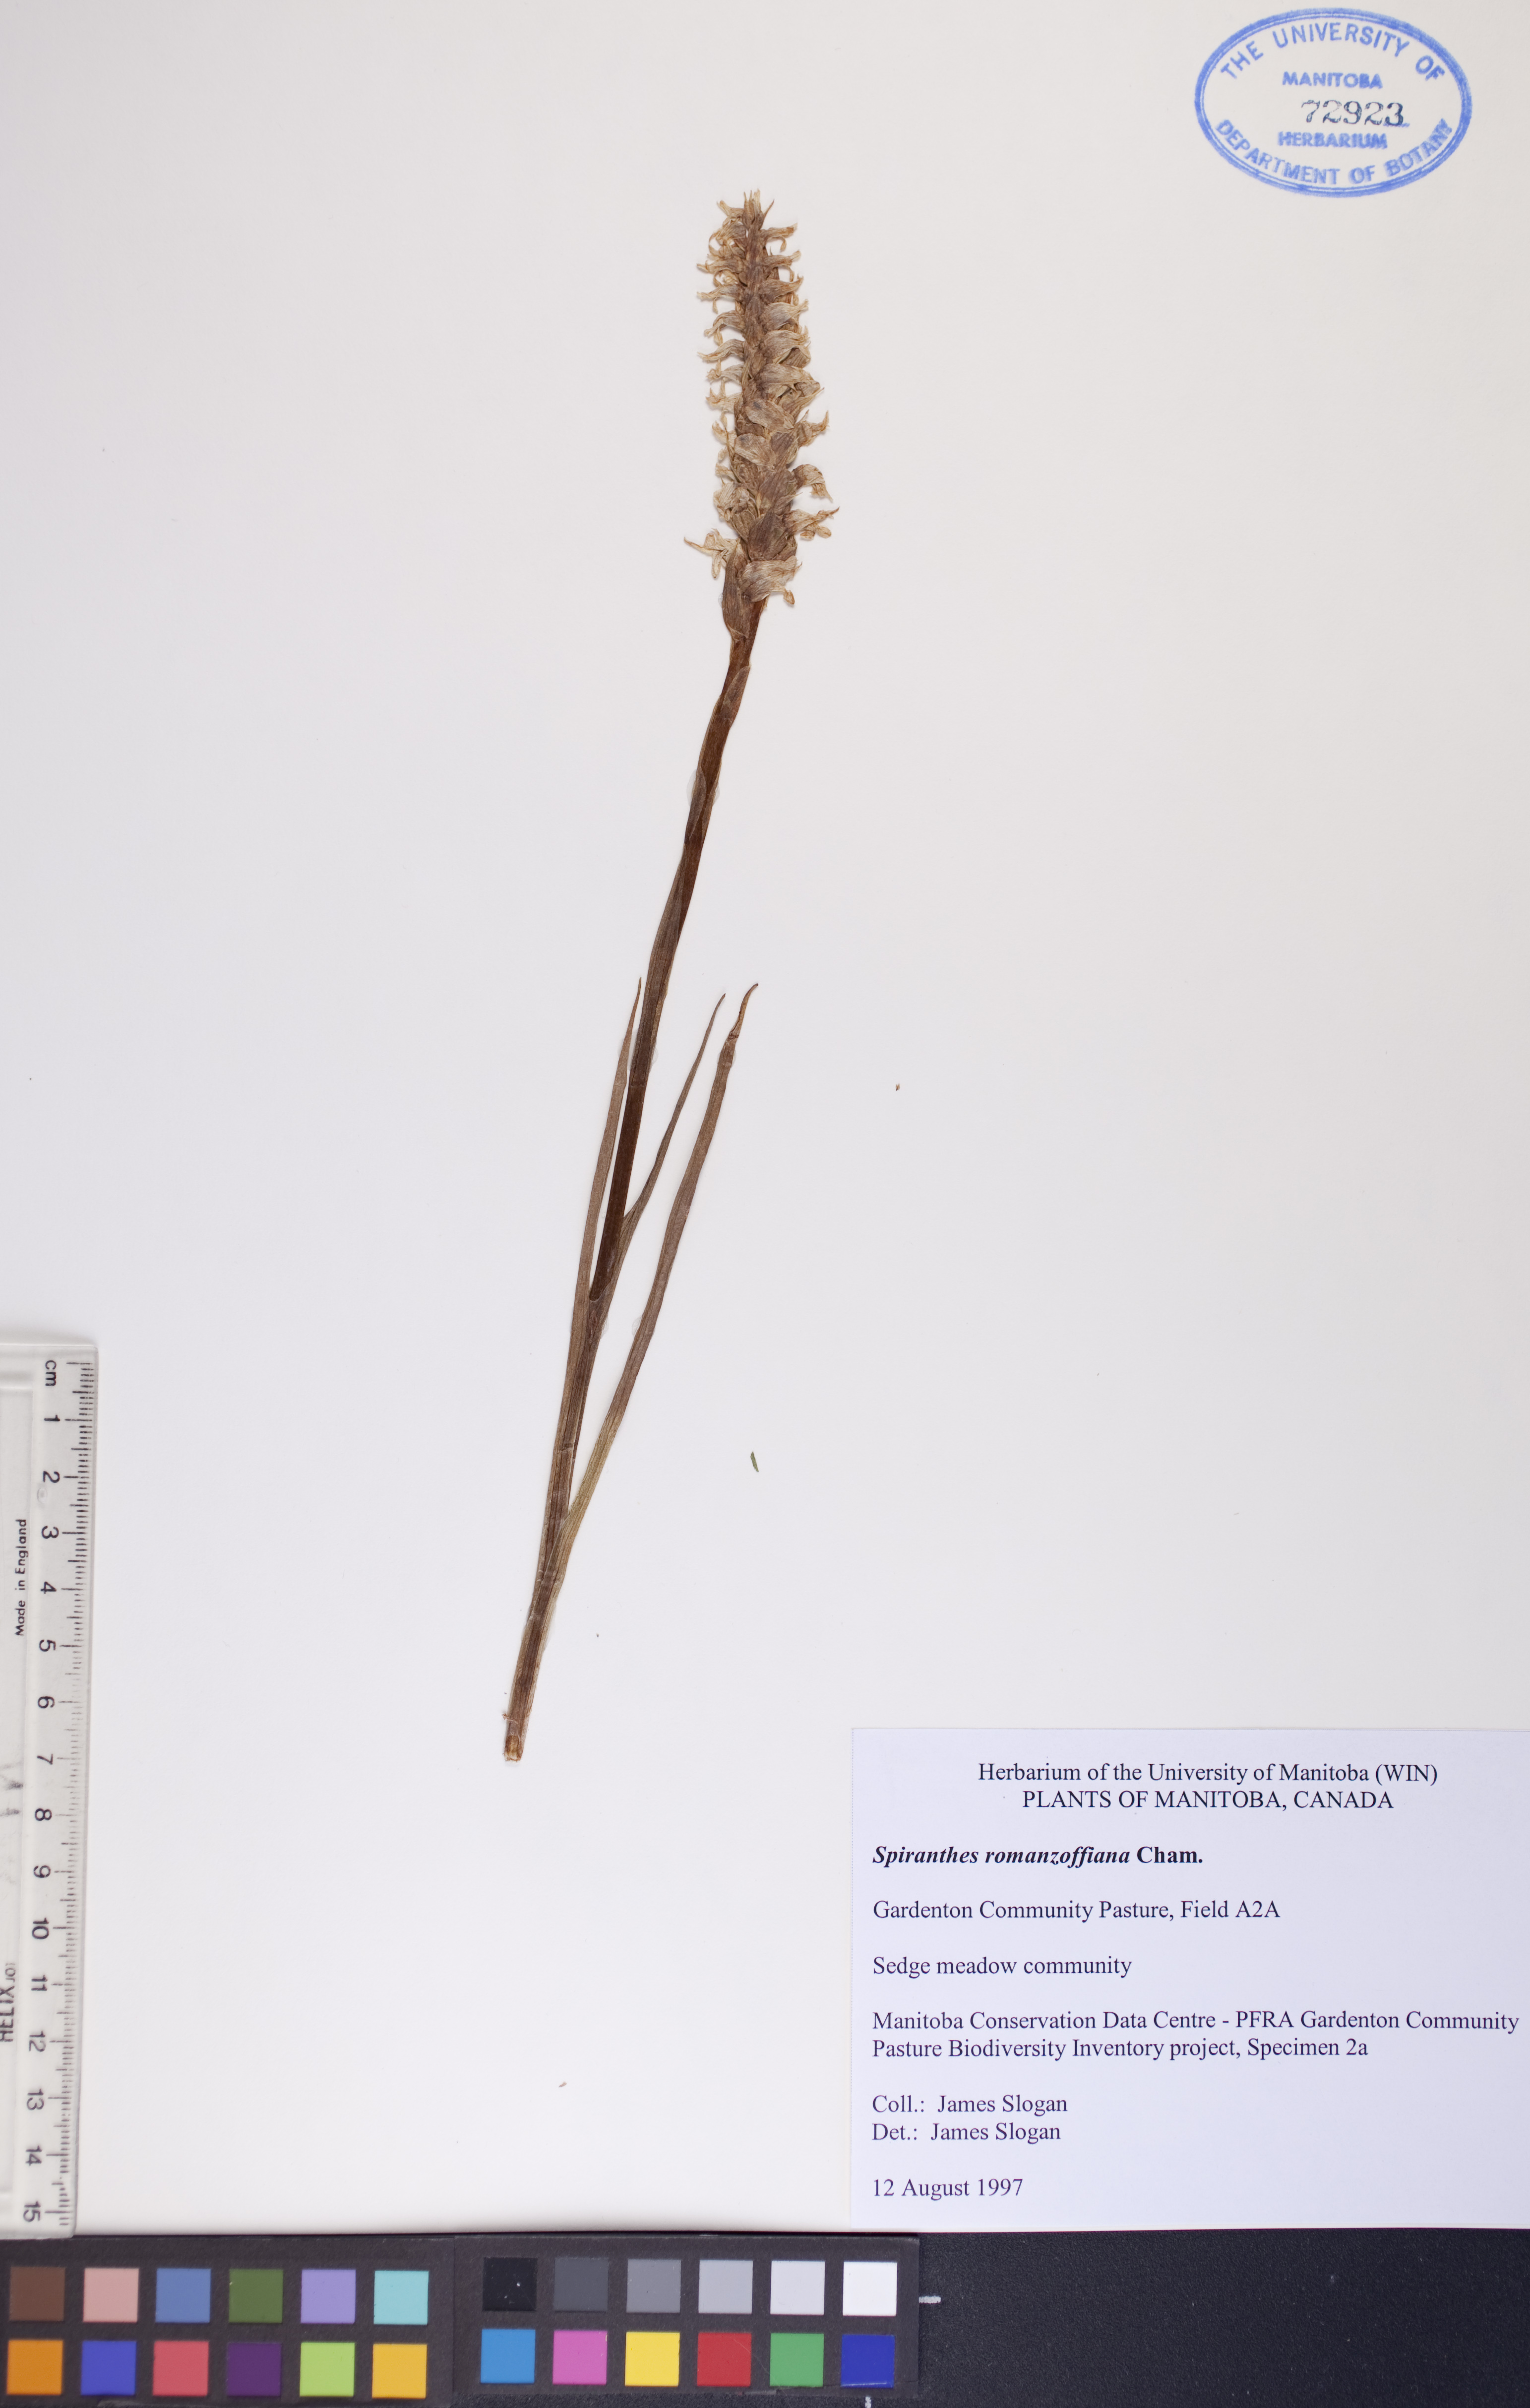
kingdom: Plantae
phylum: Tracheophyta
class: Liliopsida
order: Asparagales
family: Orchidaceae
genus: Spiranthes
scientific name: Spiranthes romanzoffiana
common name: Irish lady's-tresses
